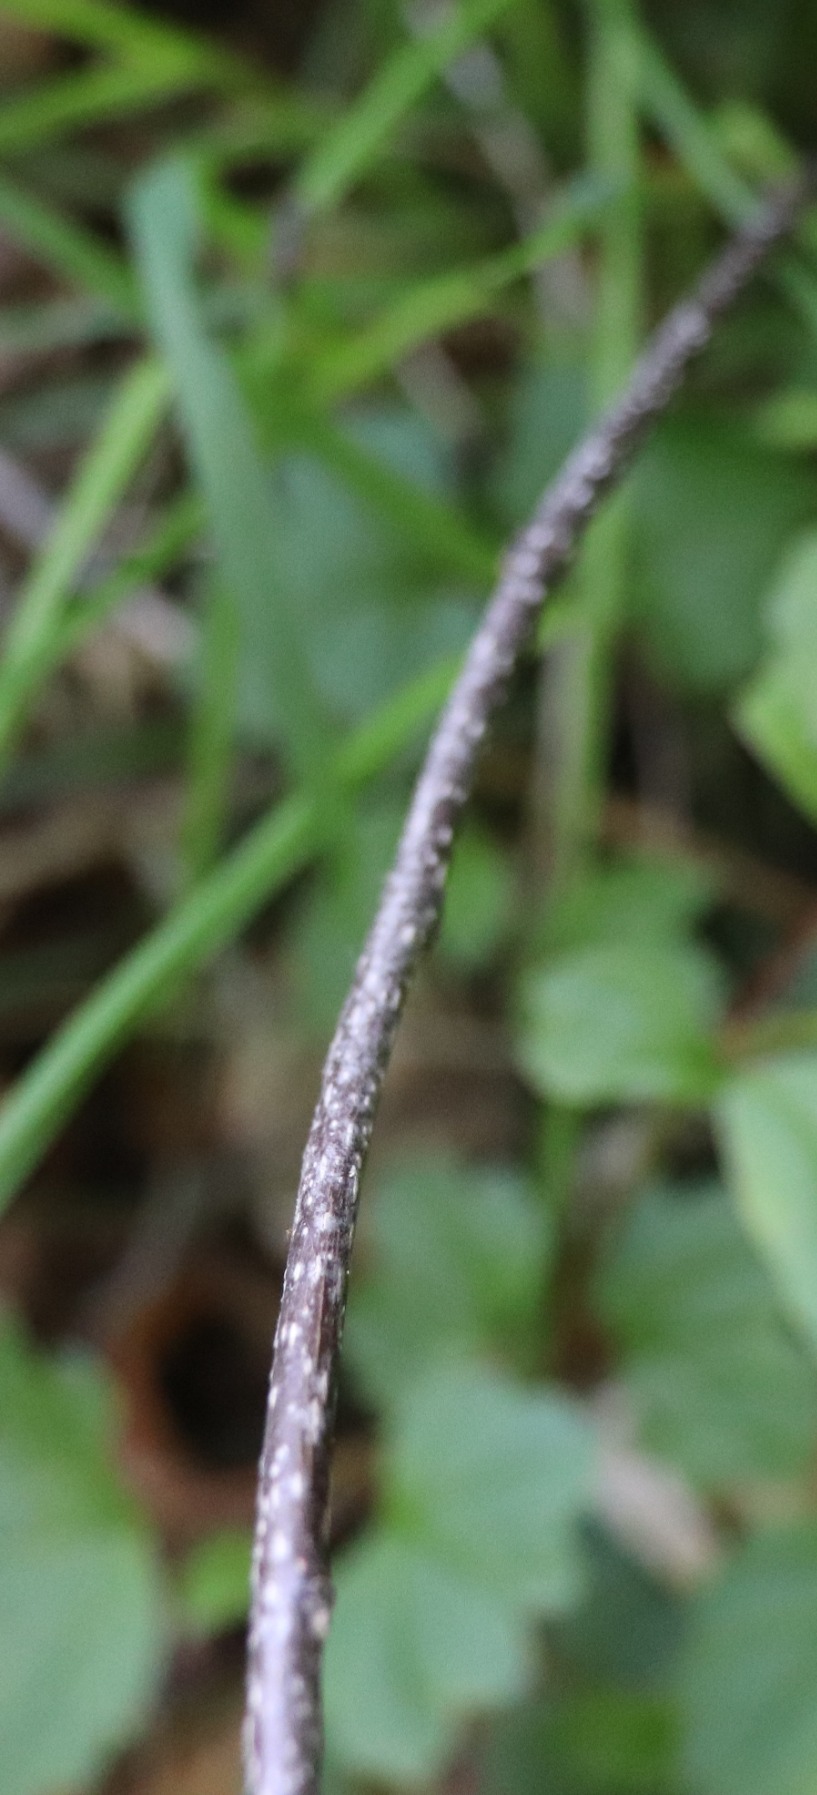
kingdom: Plantae
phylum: Tracheophyta
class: Magnoliopsida
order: Rosales
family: Rhamnaceae
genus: Frangula
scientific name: Frangula alnus
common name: Tørst
